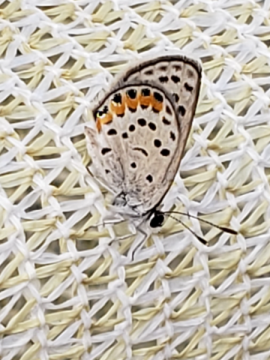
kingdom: Animalia
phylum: Arthropoda
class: Insecta
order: Lepidoptera
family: Lycaenidae
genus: Plebejus
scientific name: Plebejus lupini
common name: Lupine Blue
